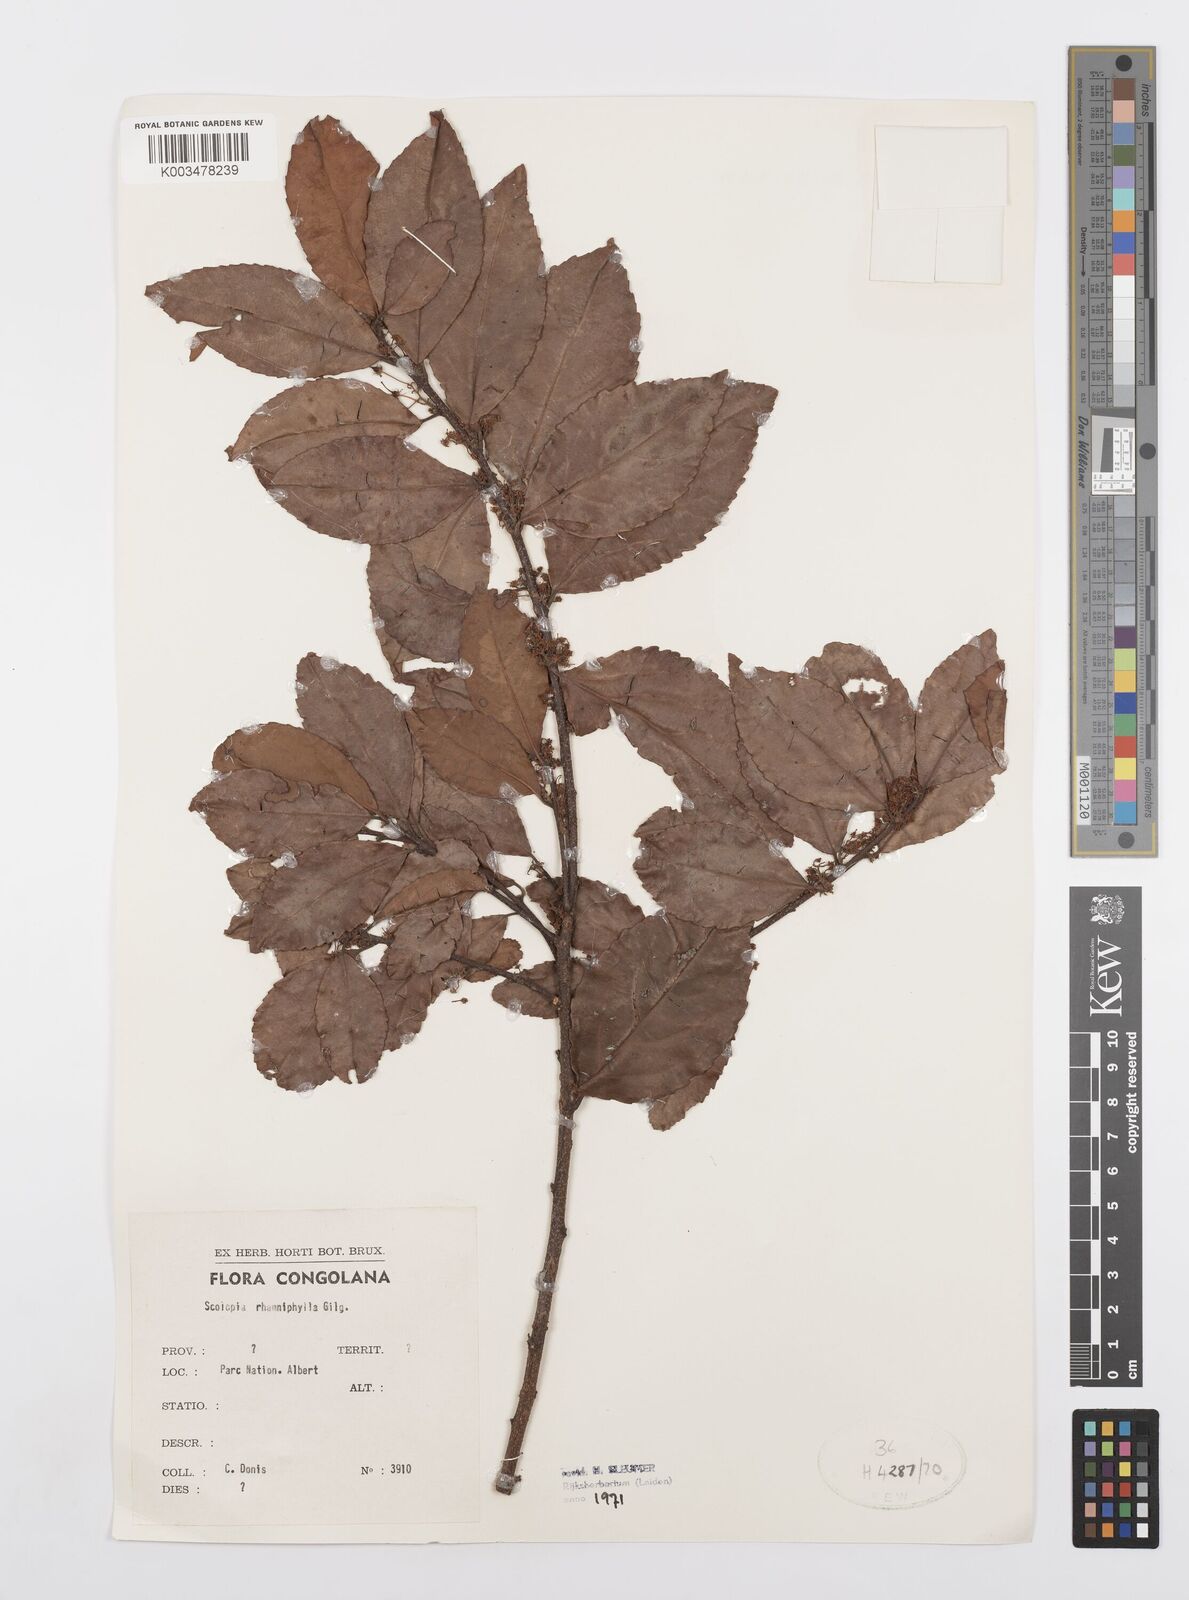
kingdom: Plantae
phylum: Tracheophyta
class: Magnoliopsida
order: Malpighiales
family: Salicaceae
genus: Scolopia
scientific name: Scolopia rhamniphylla
